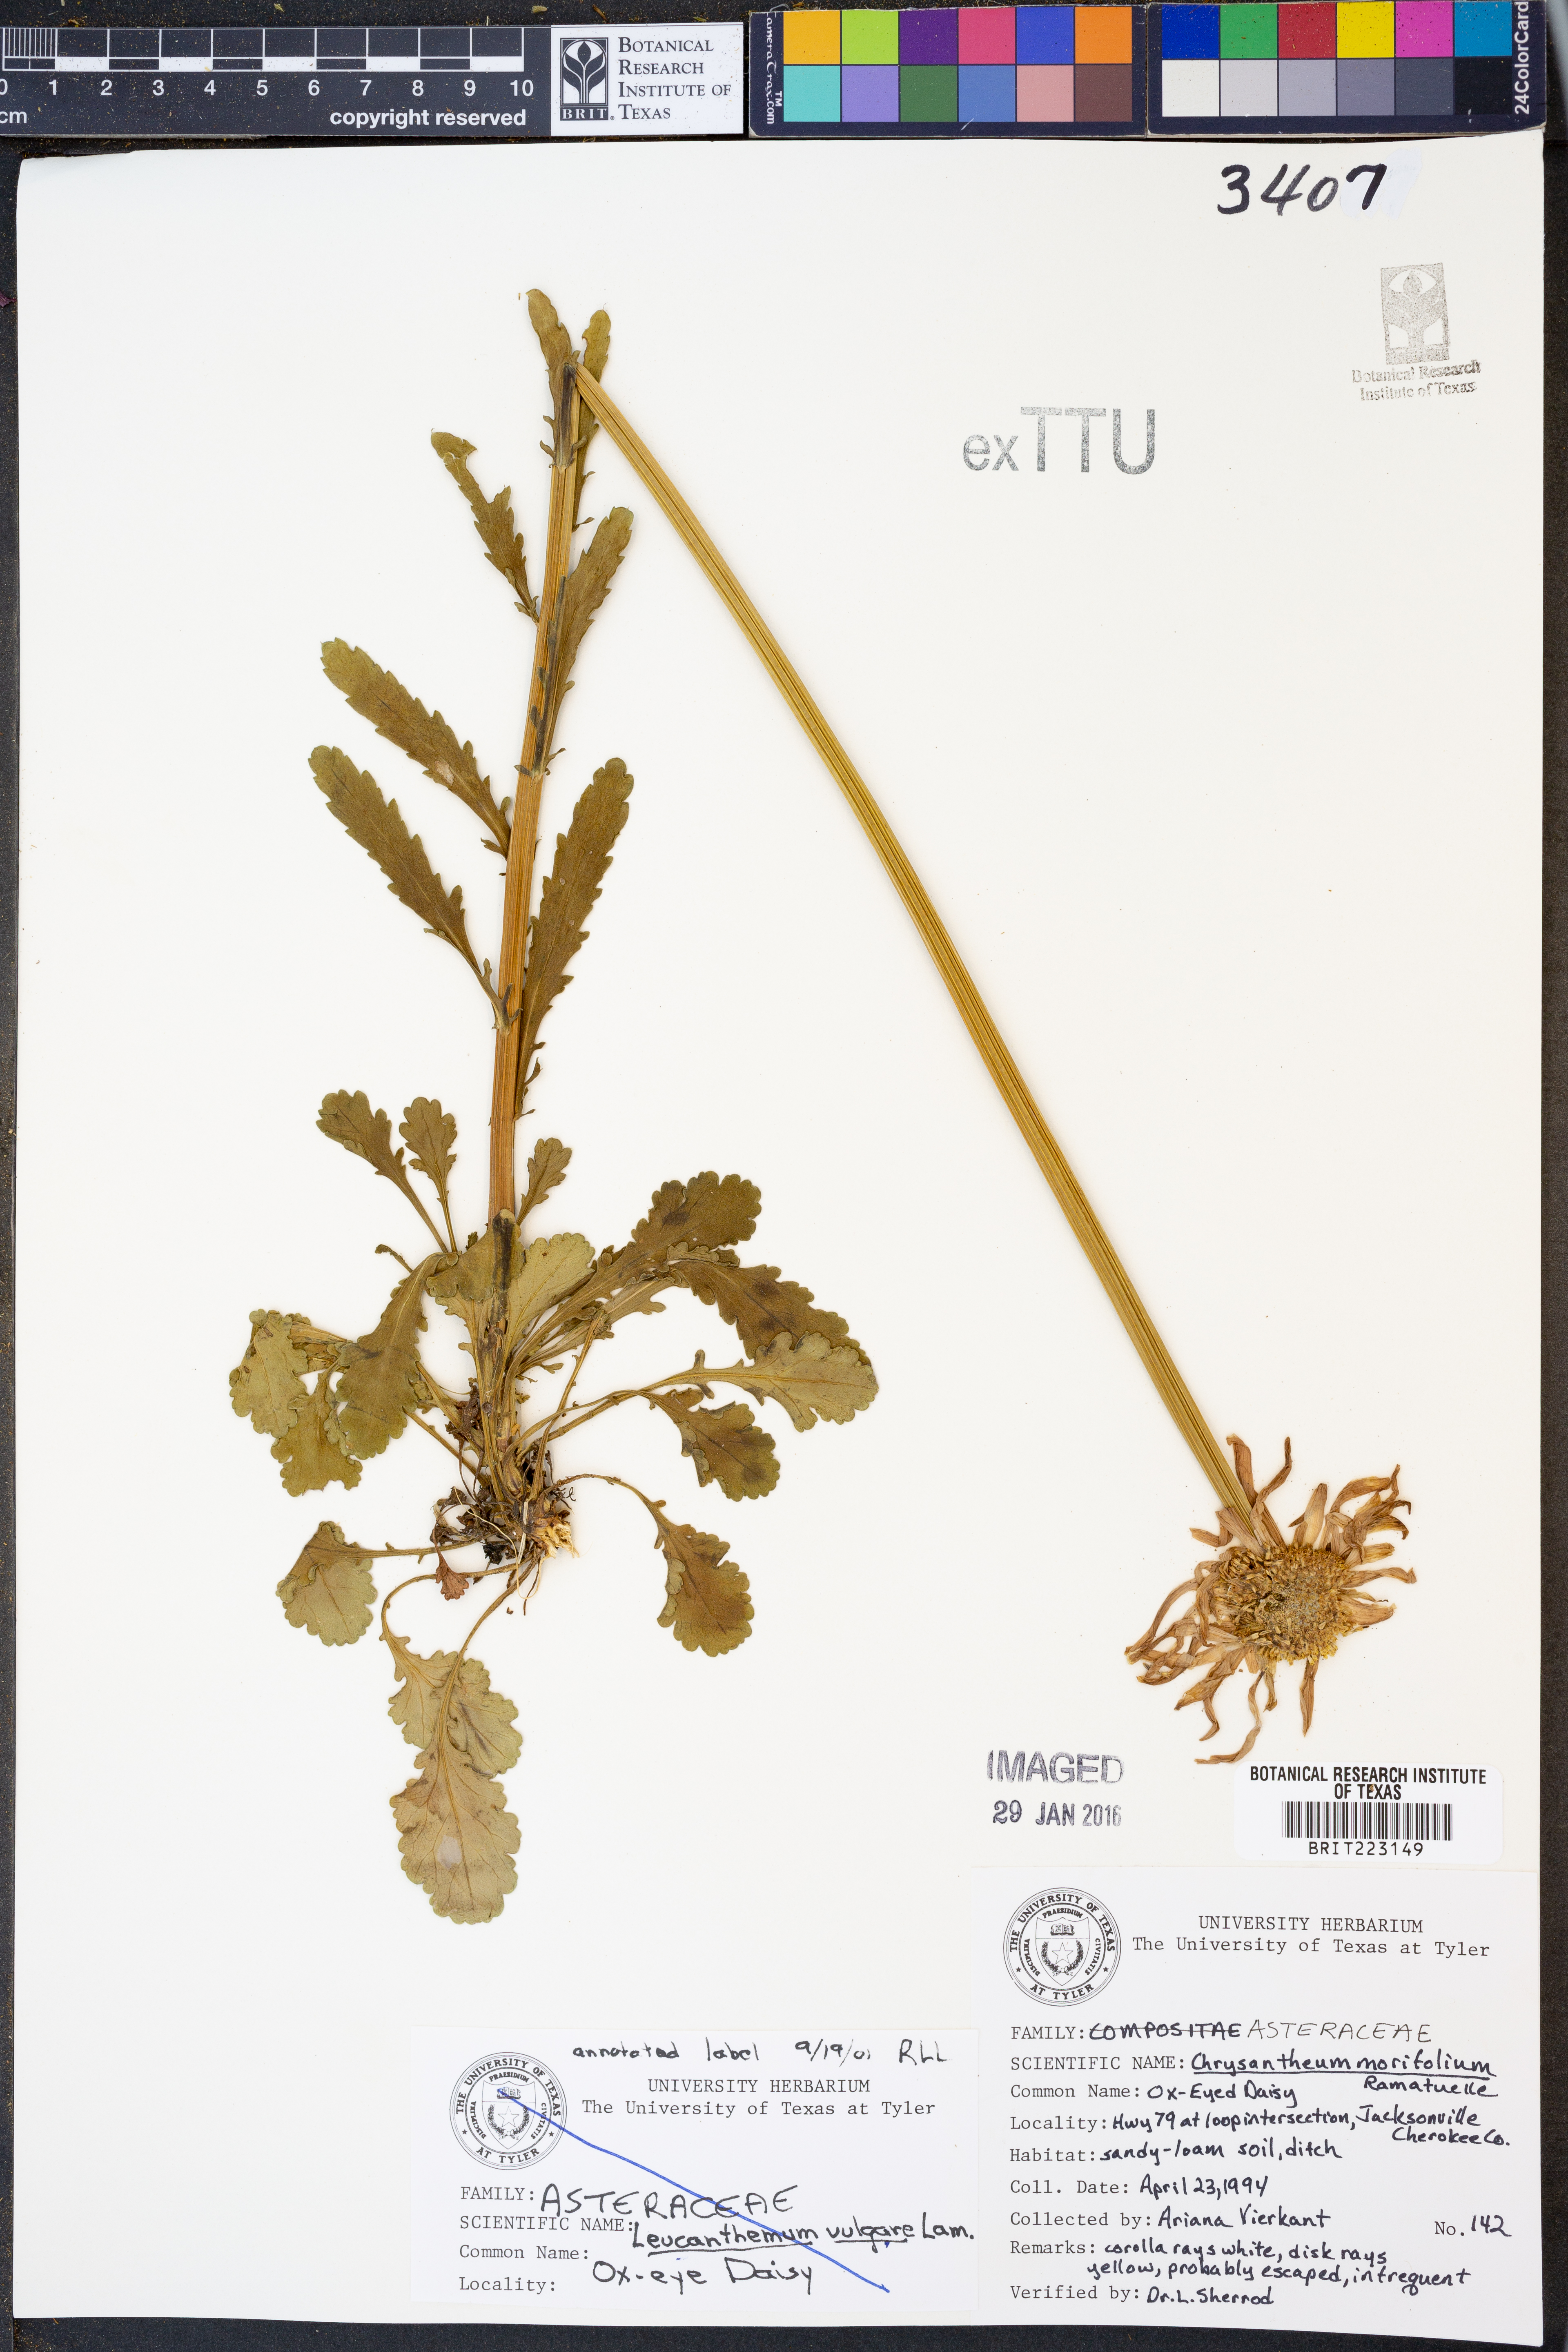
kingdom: Plantae
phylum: Tracheophyta
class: Magnoliopsida
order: Asterales
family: Asteraceae
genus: Chrysanthemum
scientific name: Chrysanthemum morifolium
